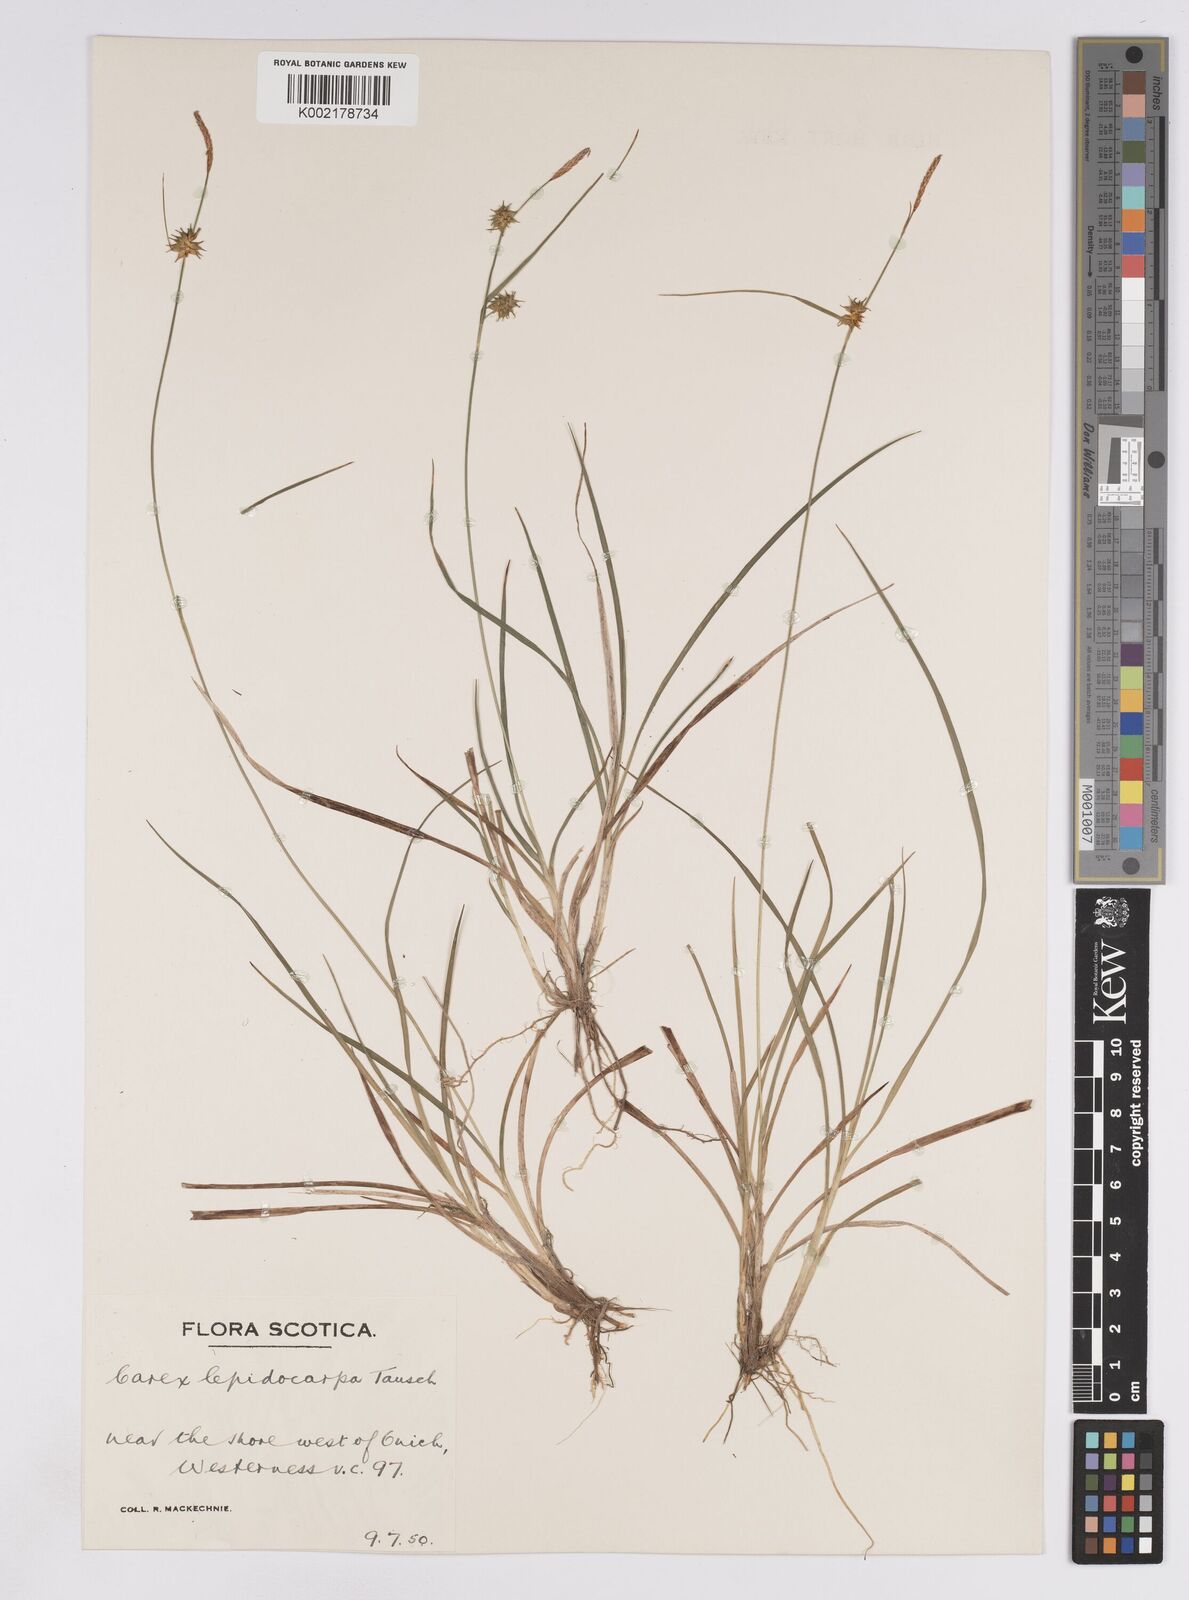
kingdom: Plantae
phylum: Tracheophyta
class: Liliopsida
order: Poales
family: Cyperaceae
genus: Carex
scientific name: Carex lepidocarpa
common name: Long-stalked yellow-sedge
